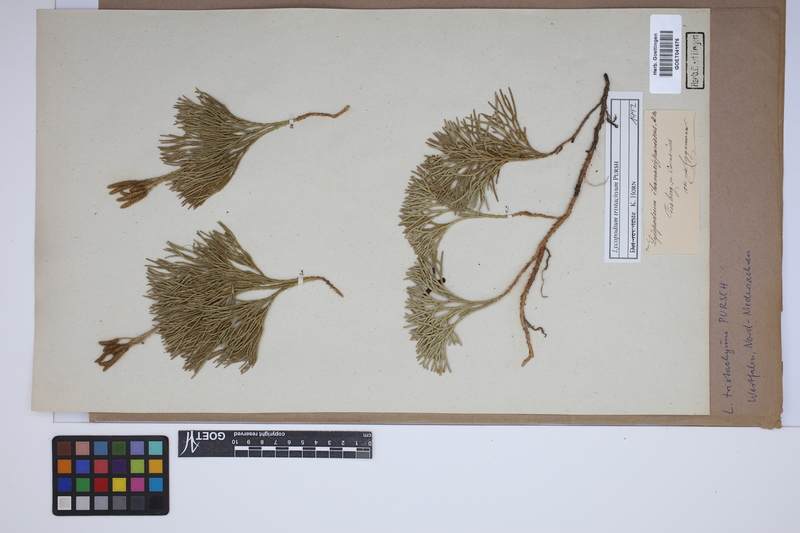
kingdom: Plantae
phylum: Tracheophyta
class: Lycopodiopsida
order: Lycopodiales
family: Lycopodiaceae
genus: Diphasiastrum
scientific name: Diphasiastrum tristachyum
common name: Blue ground-cedar
